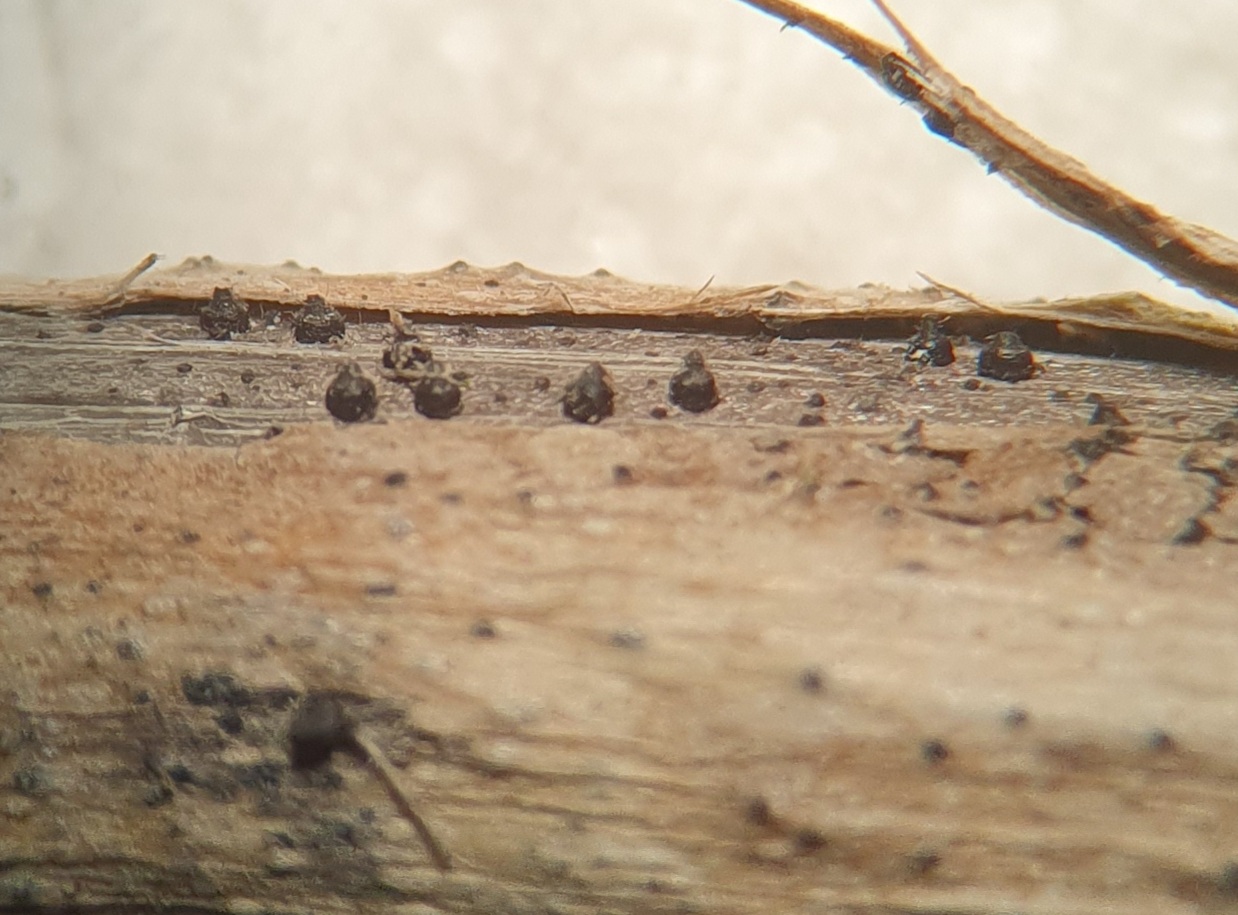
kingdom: Fungi
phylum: Ascomycota
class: Dothideomycetes
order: Pleosporales
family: Leptosphaeriaceae
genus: Leptosphaeria
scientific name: Leptosphaeria acuta
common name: spids kulkegle
